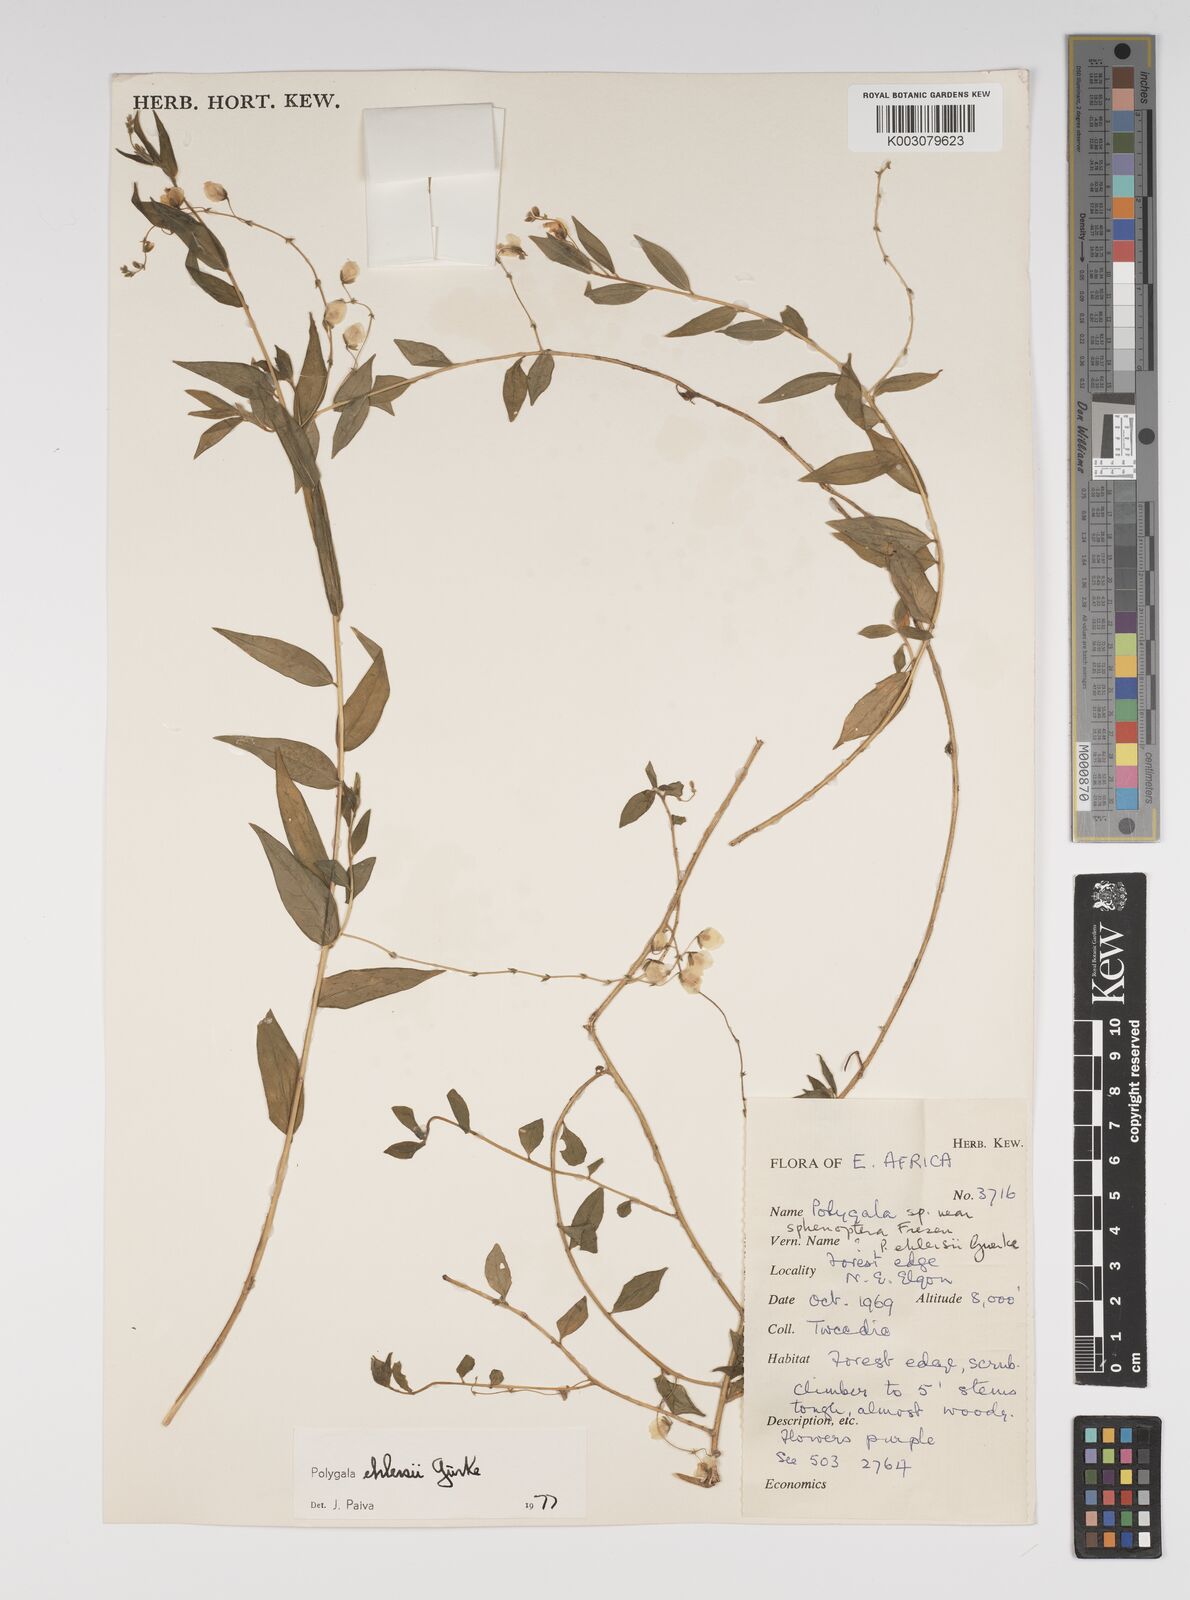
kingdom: Plantae
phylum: Tracheophyta
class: Magnoliopsida
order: Fabales
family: Polygalaceae
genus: Polygala
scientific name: Polygala ehlersii
